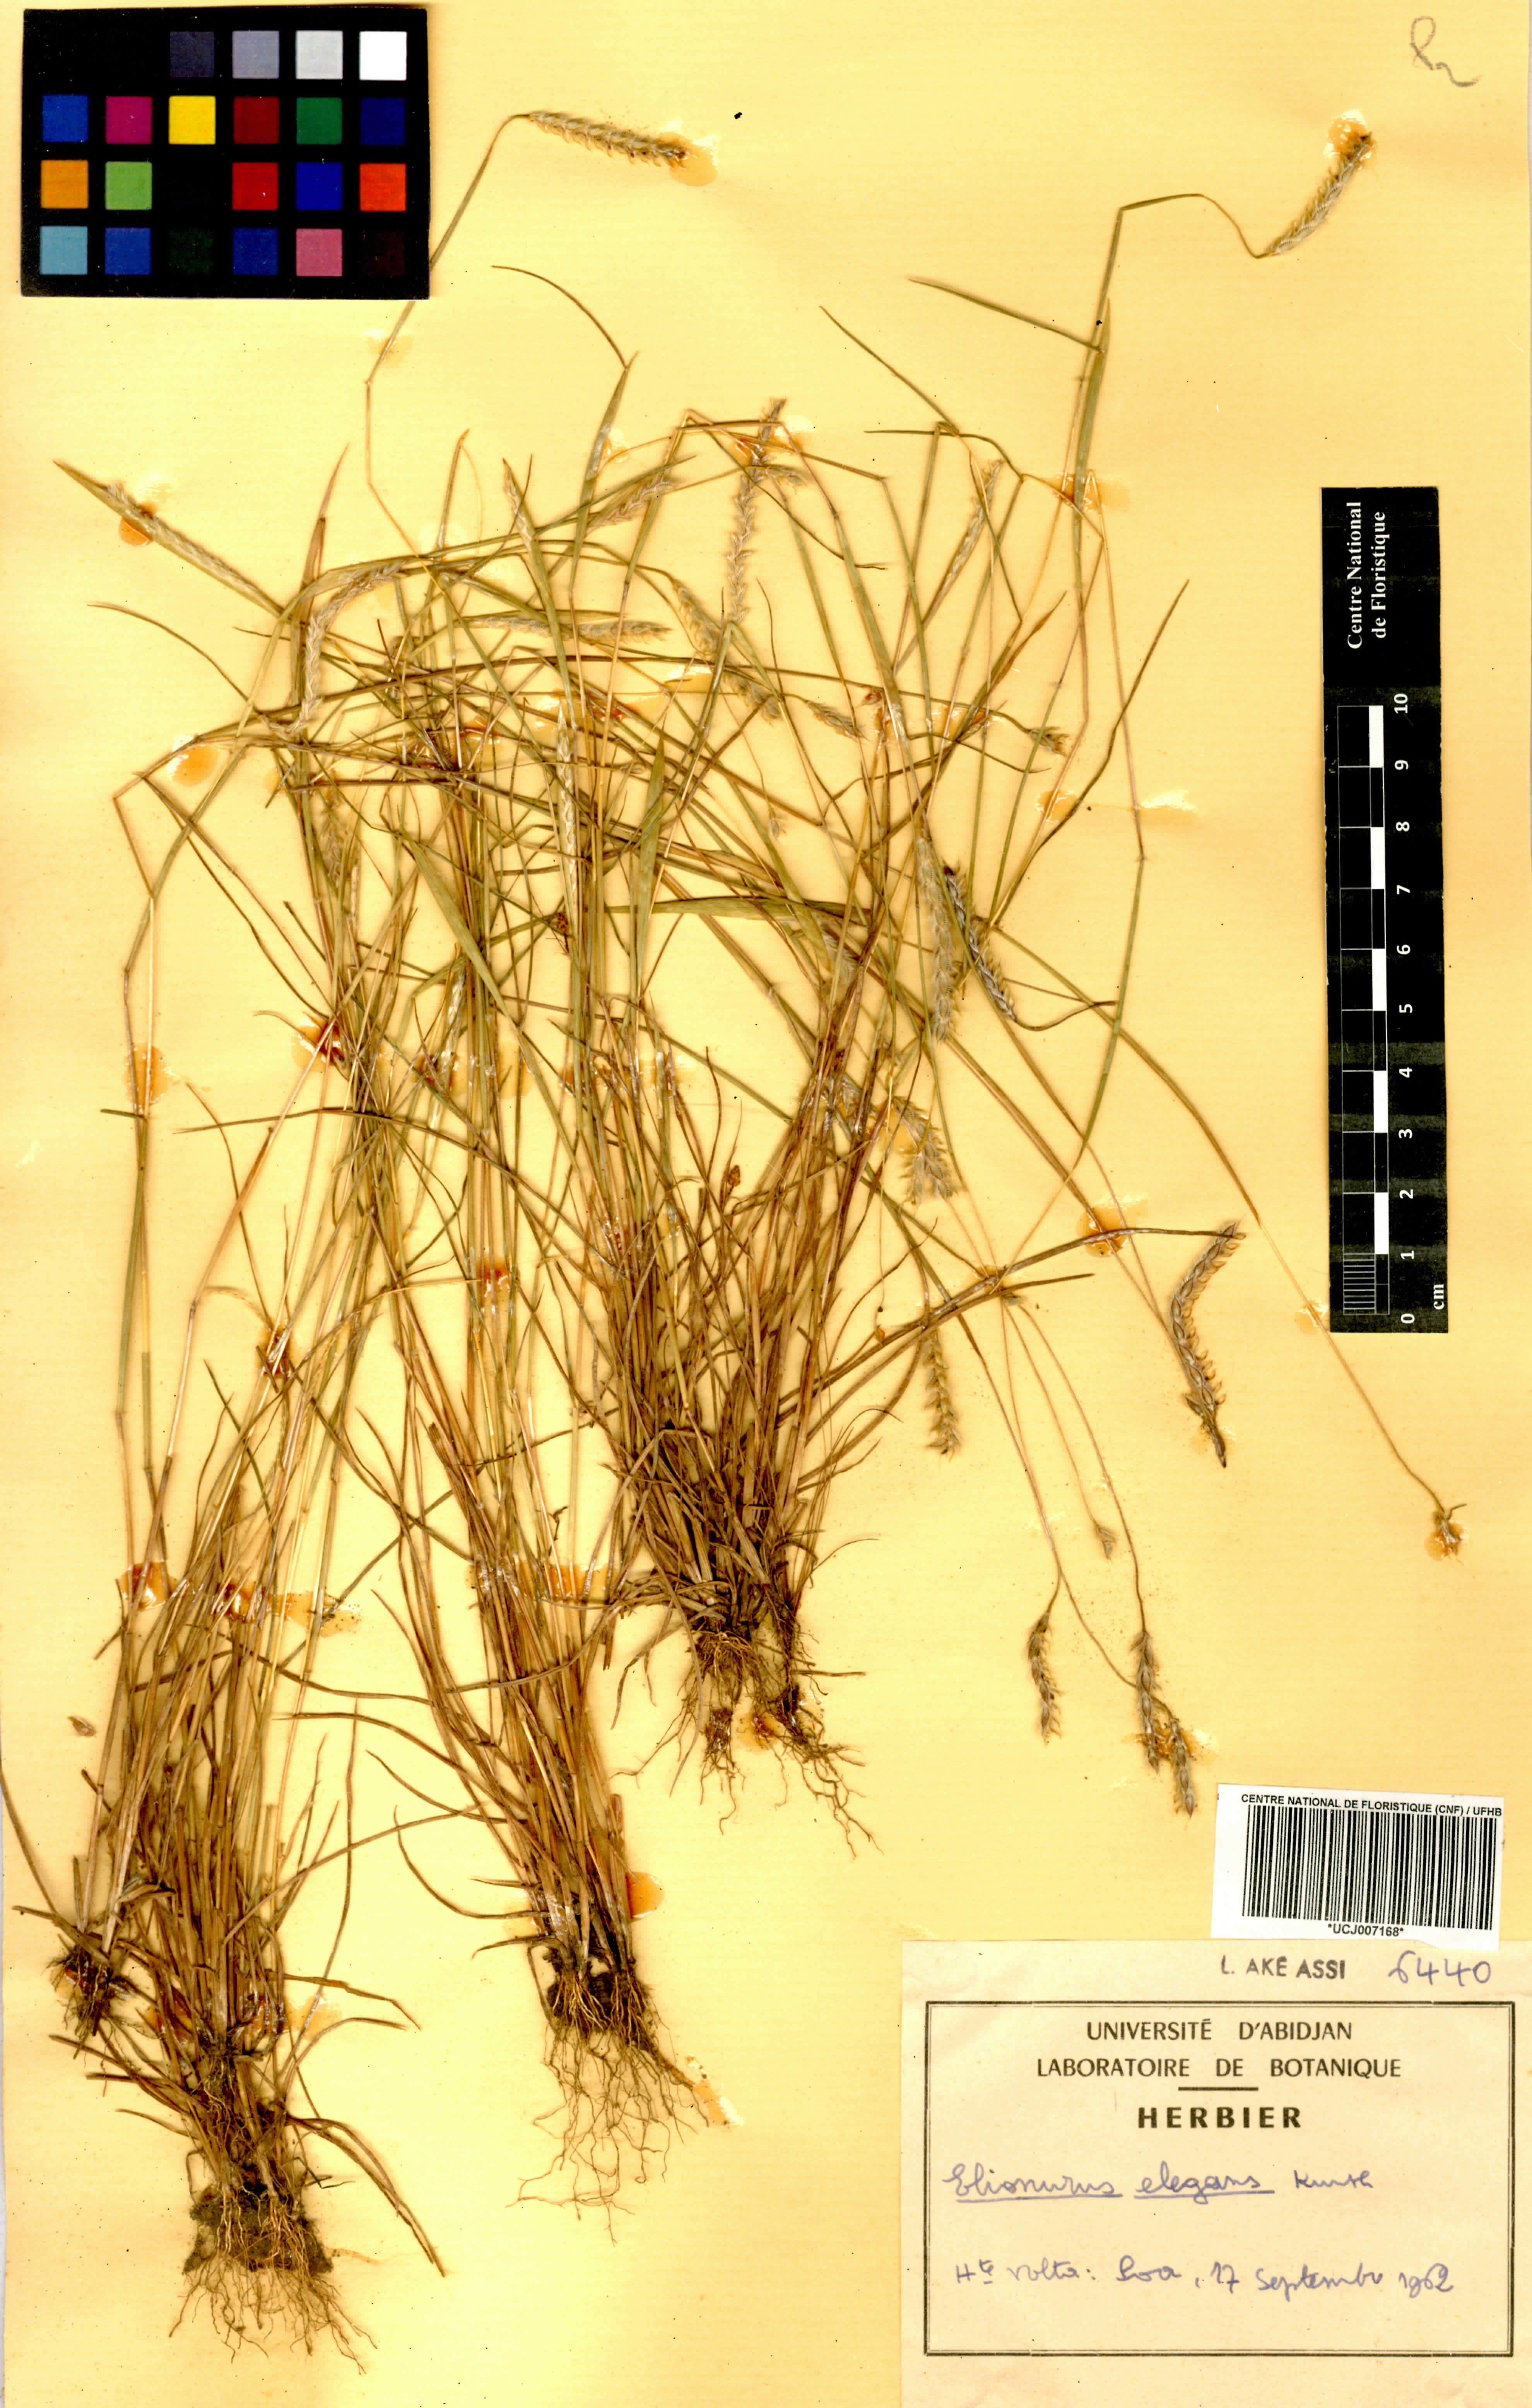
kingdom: Plantae
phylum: Tracheophyta
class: Liliopsida
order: Poales
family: Poaceae
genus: Elionurus
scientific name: Elionurus elegans
